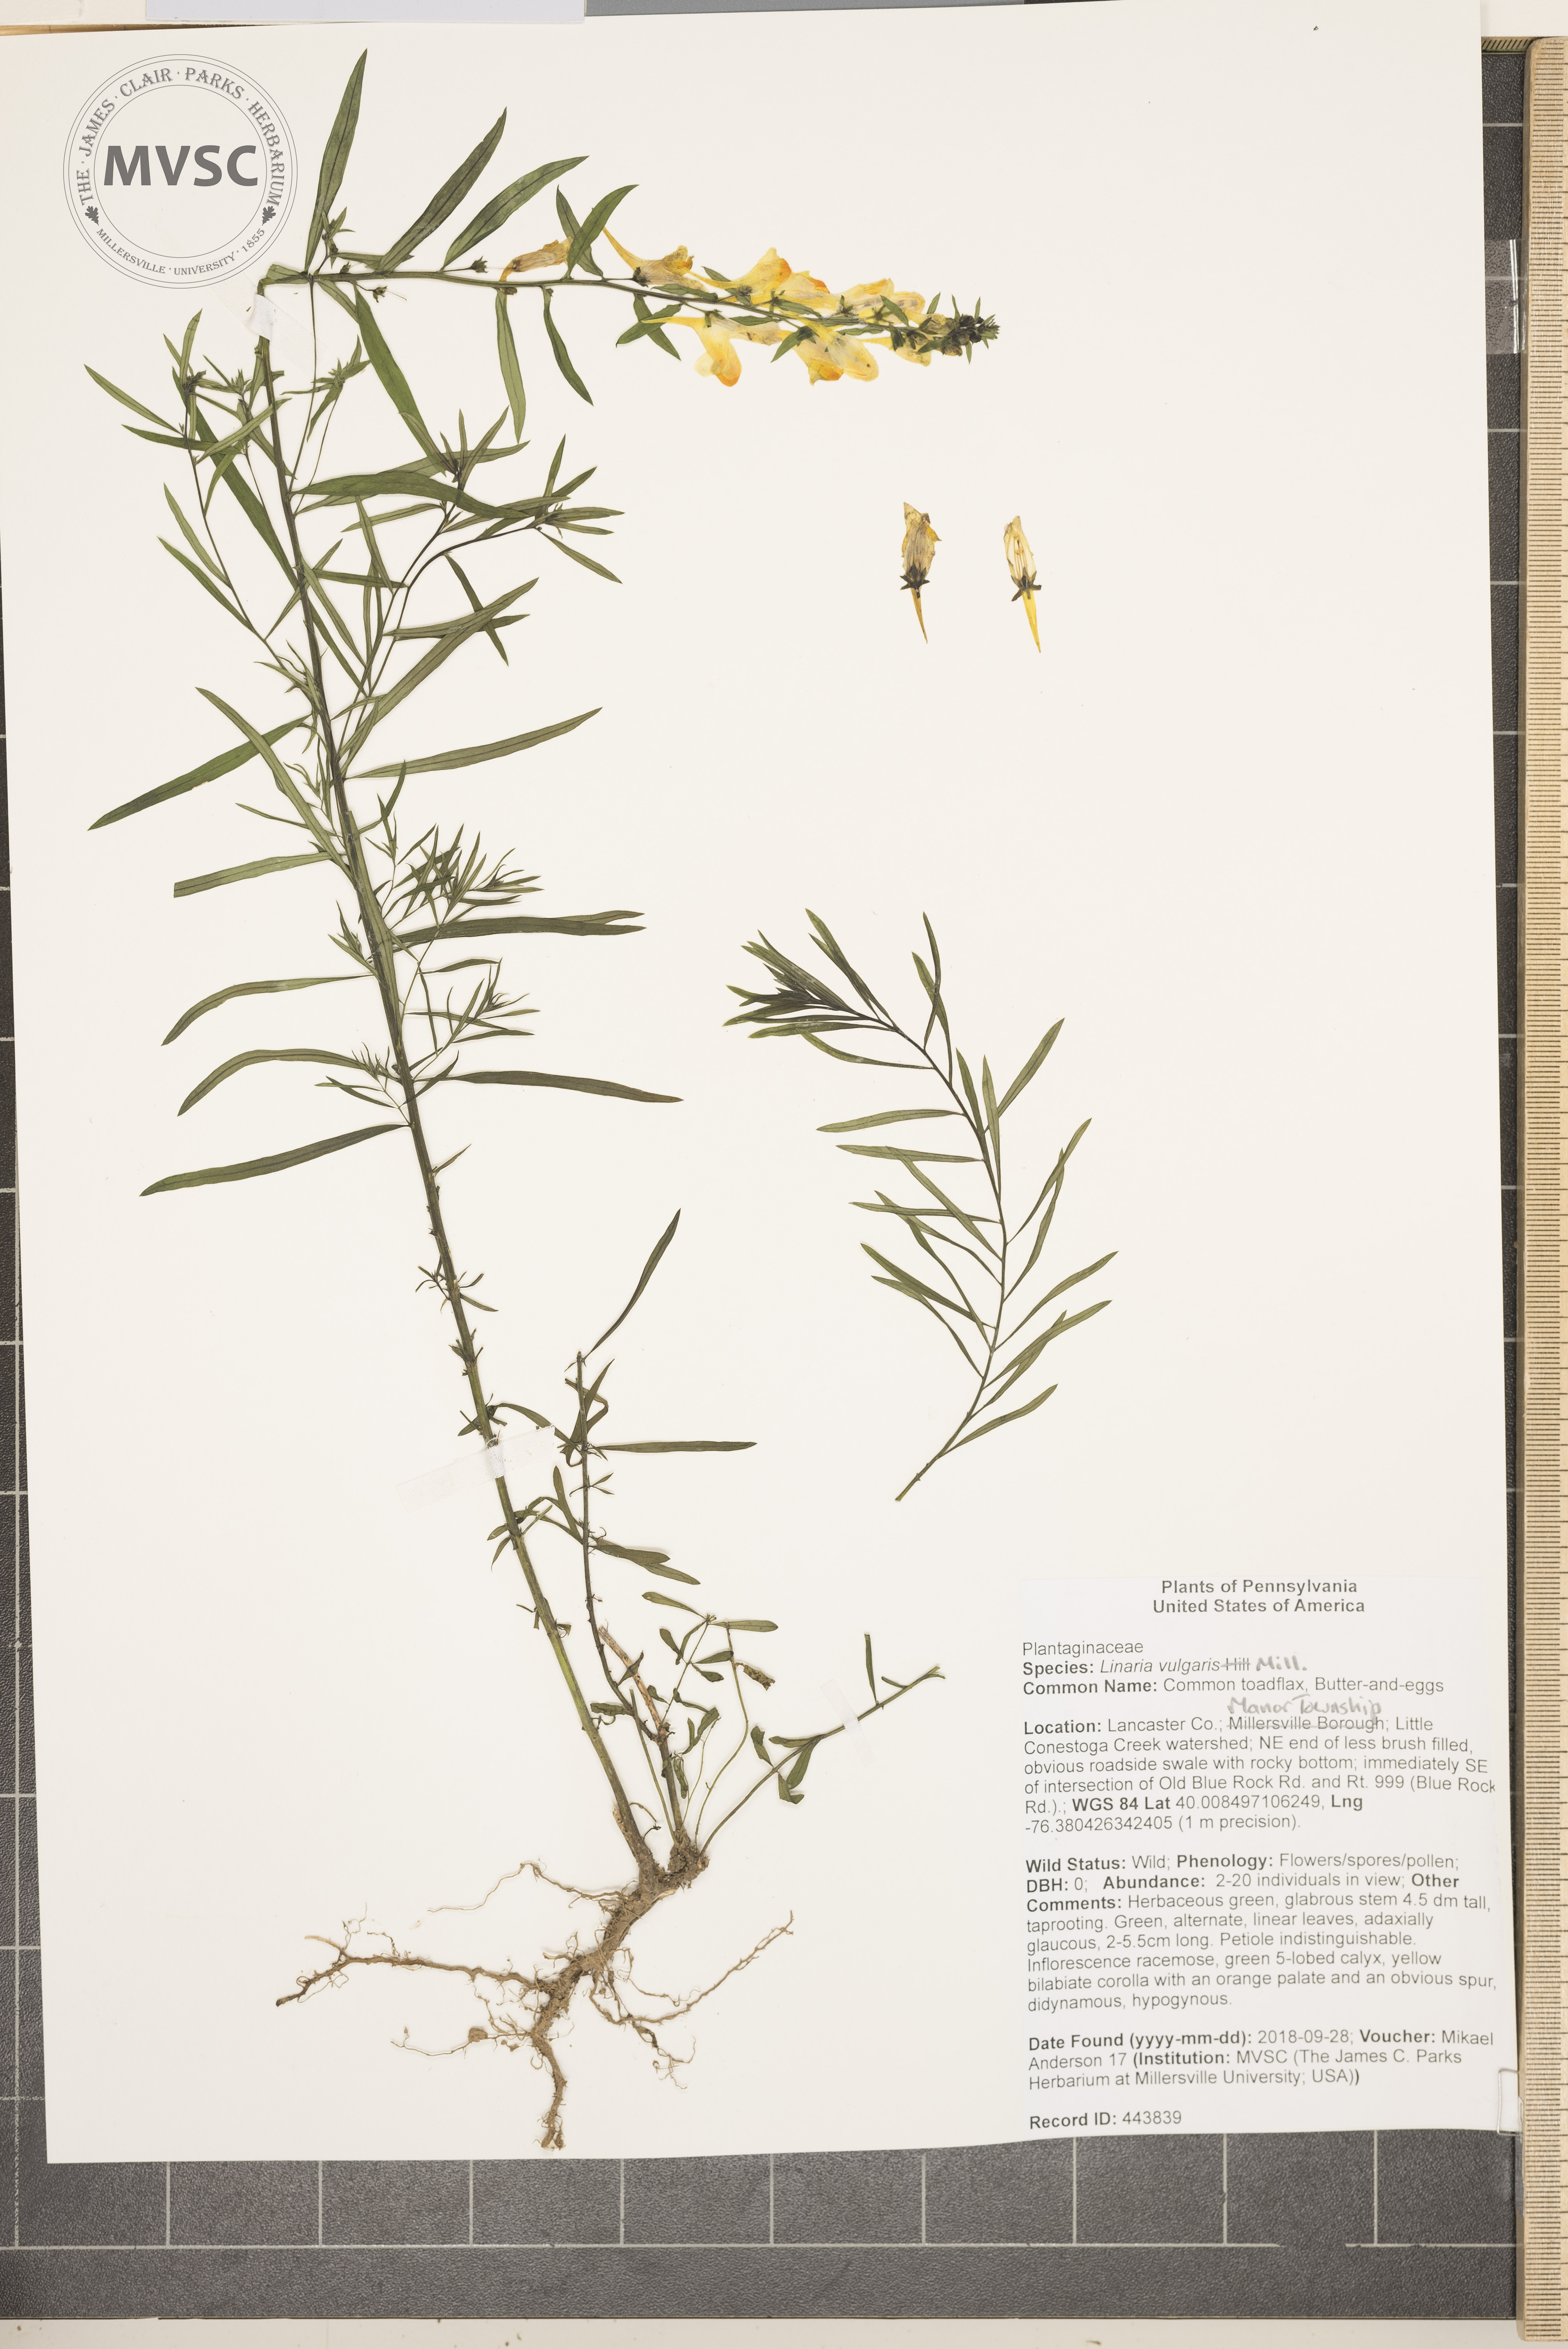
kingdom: Plantae
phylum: Tracheophyta
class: Magnoliopsida
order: Lamiales
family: Plantaginaceae
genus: Linaria
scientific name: Linaria vulgaris
